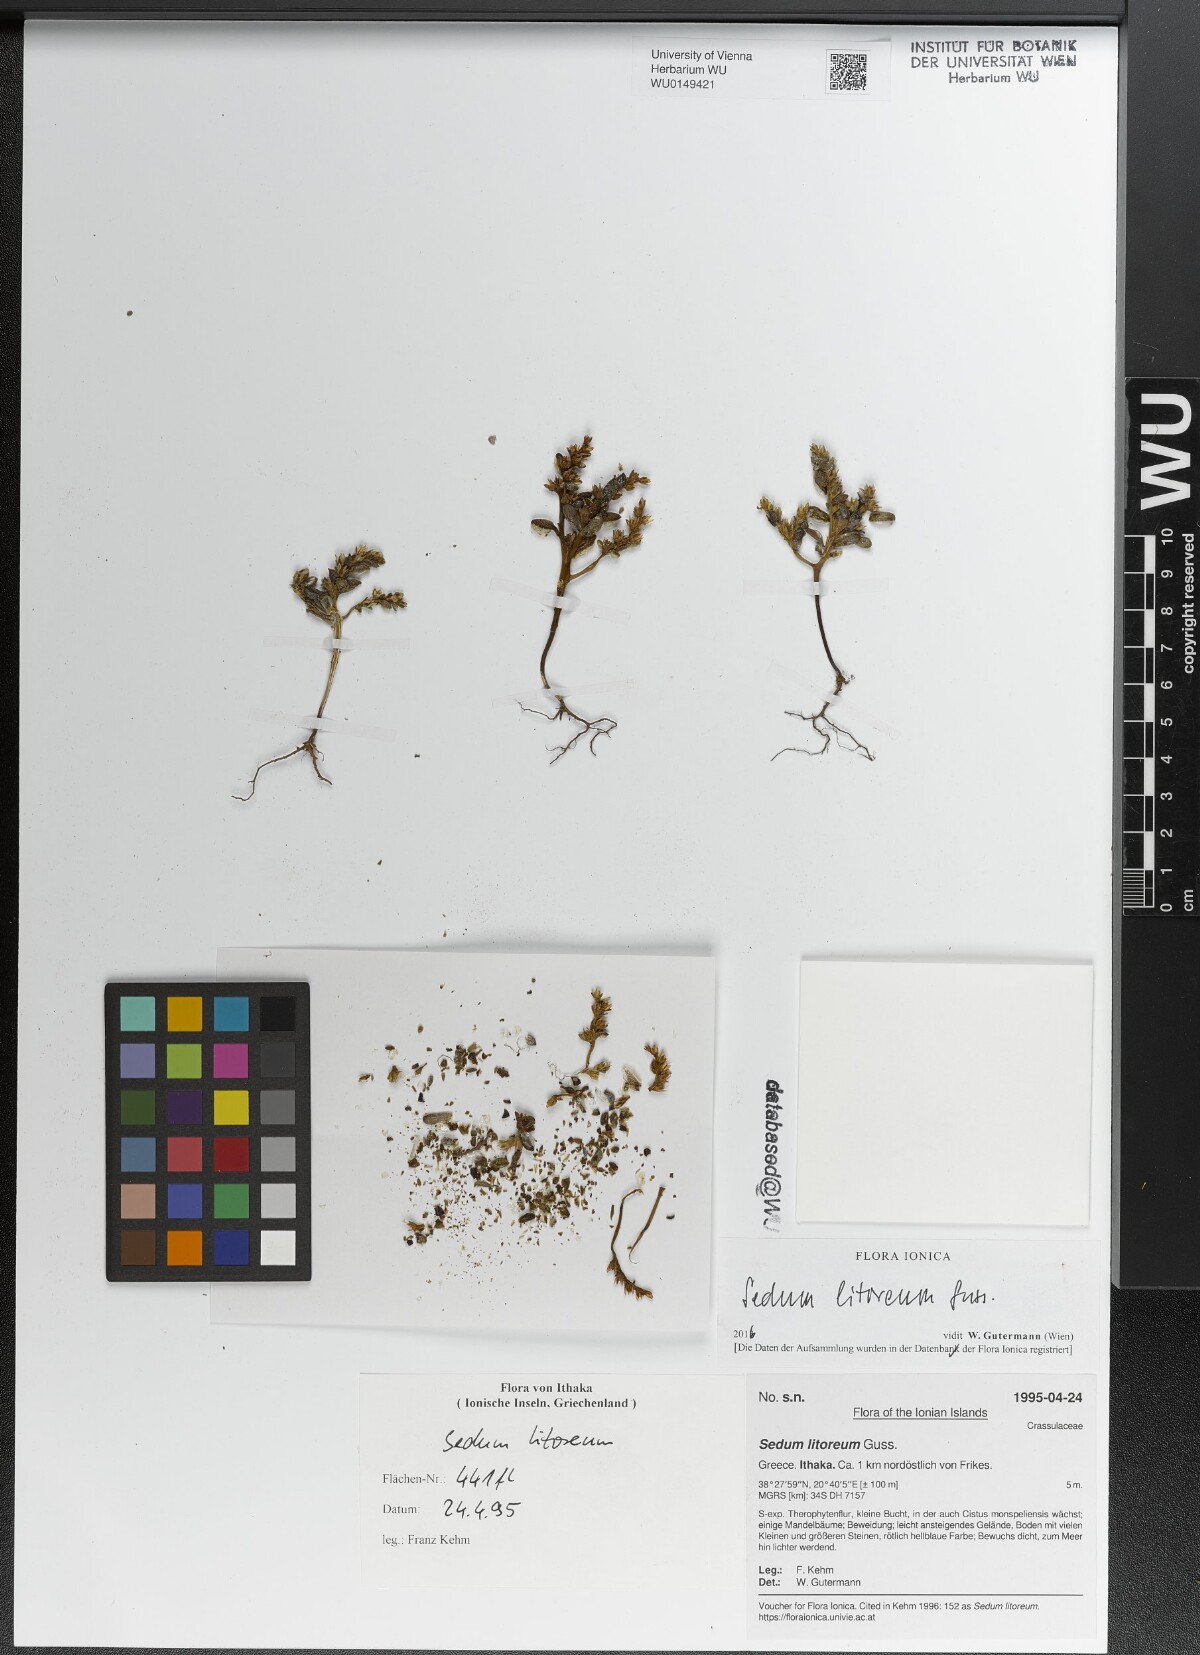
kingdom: Plantae
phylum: Tracheophyta
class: Magnoliopsida
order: Saxifragales
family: Crassulaceae
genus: Sedum
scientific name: Sedum litoreum
